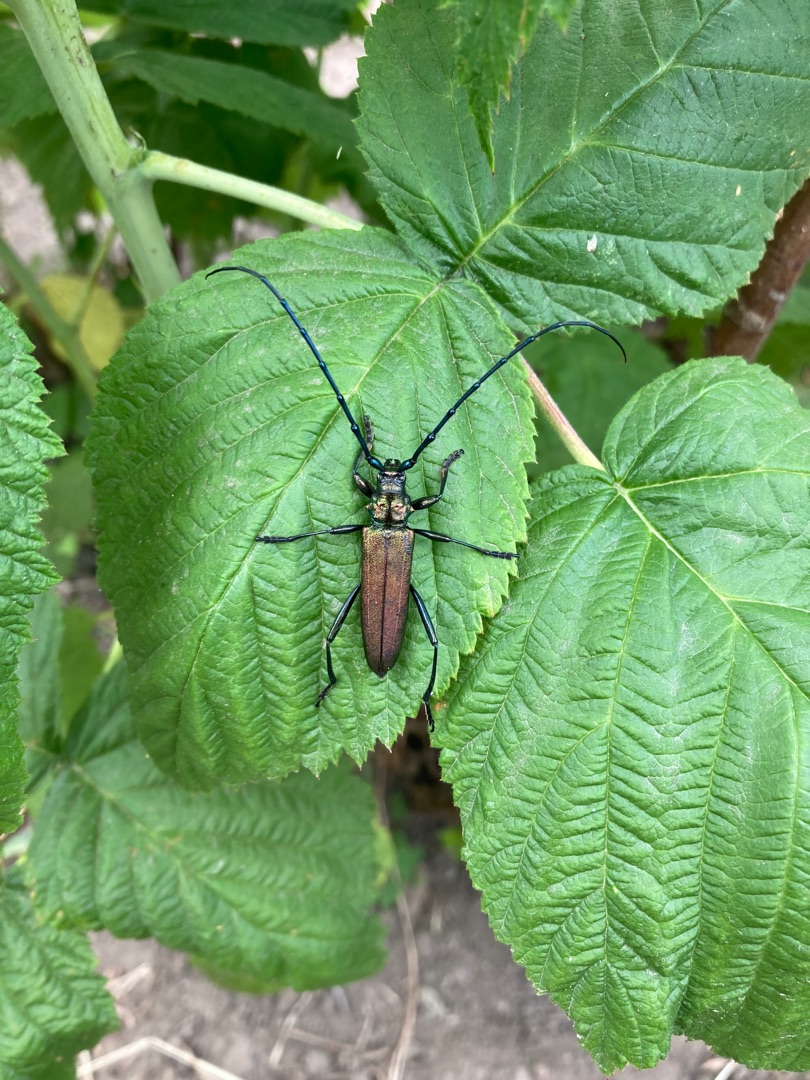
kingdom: Animalia
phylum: Arthropoda
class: Insecta
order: Coleoptera
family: Cerambycidae
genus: Aromia
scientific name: Aromia moschata
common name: Moskusbuk
